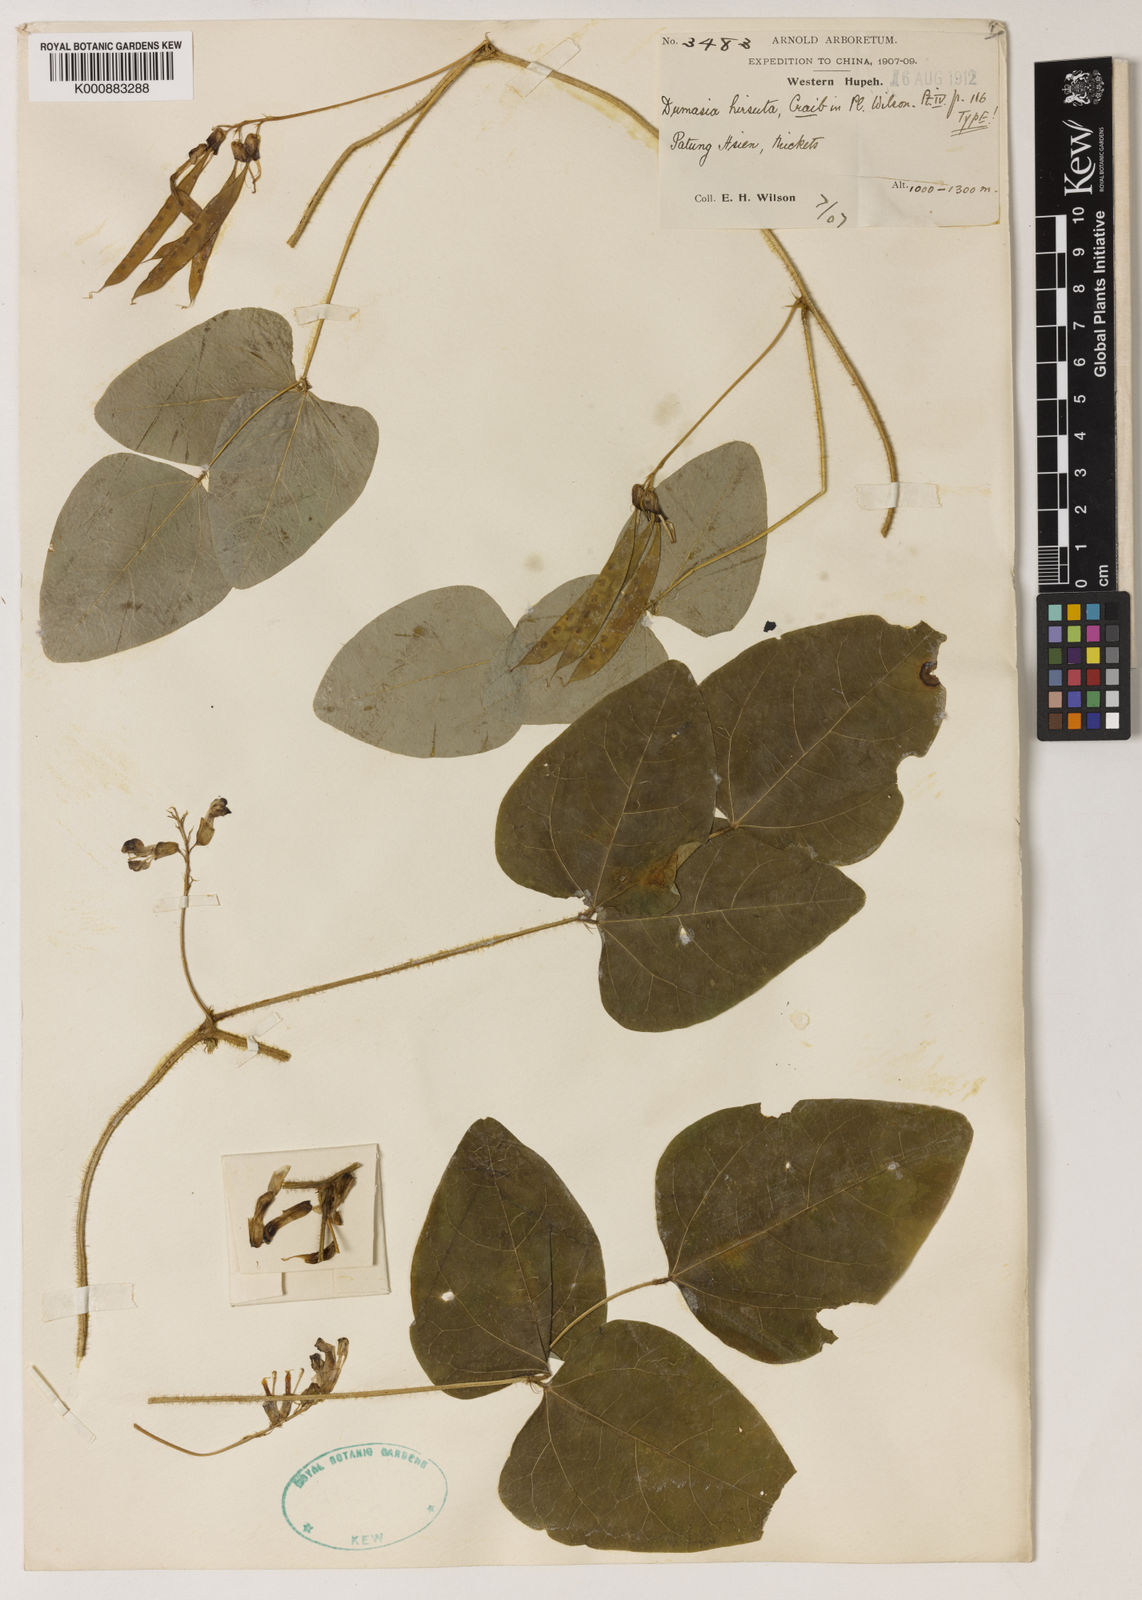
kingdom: Plantae
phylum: Tracheophyta
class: Magnoliopsida
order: Fabales
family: Fabaceae
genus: Dumasia
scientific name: Dumasia hirsuta
